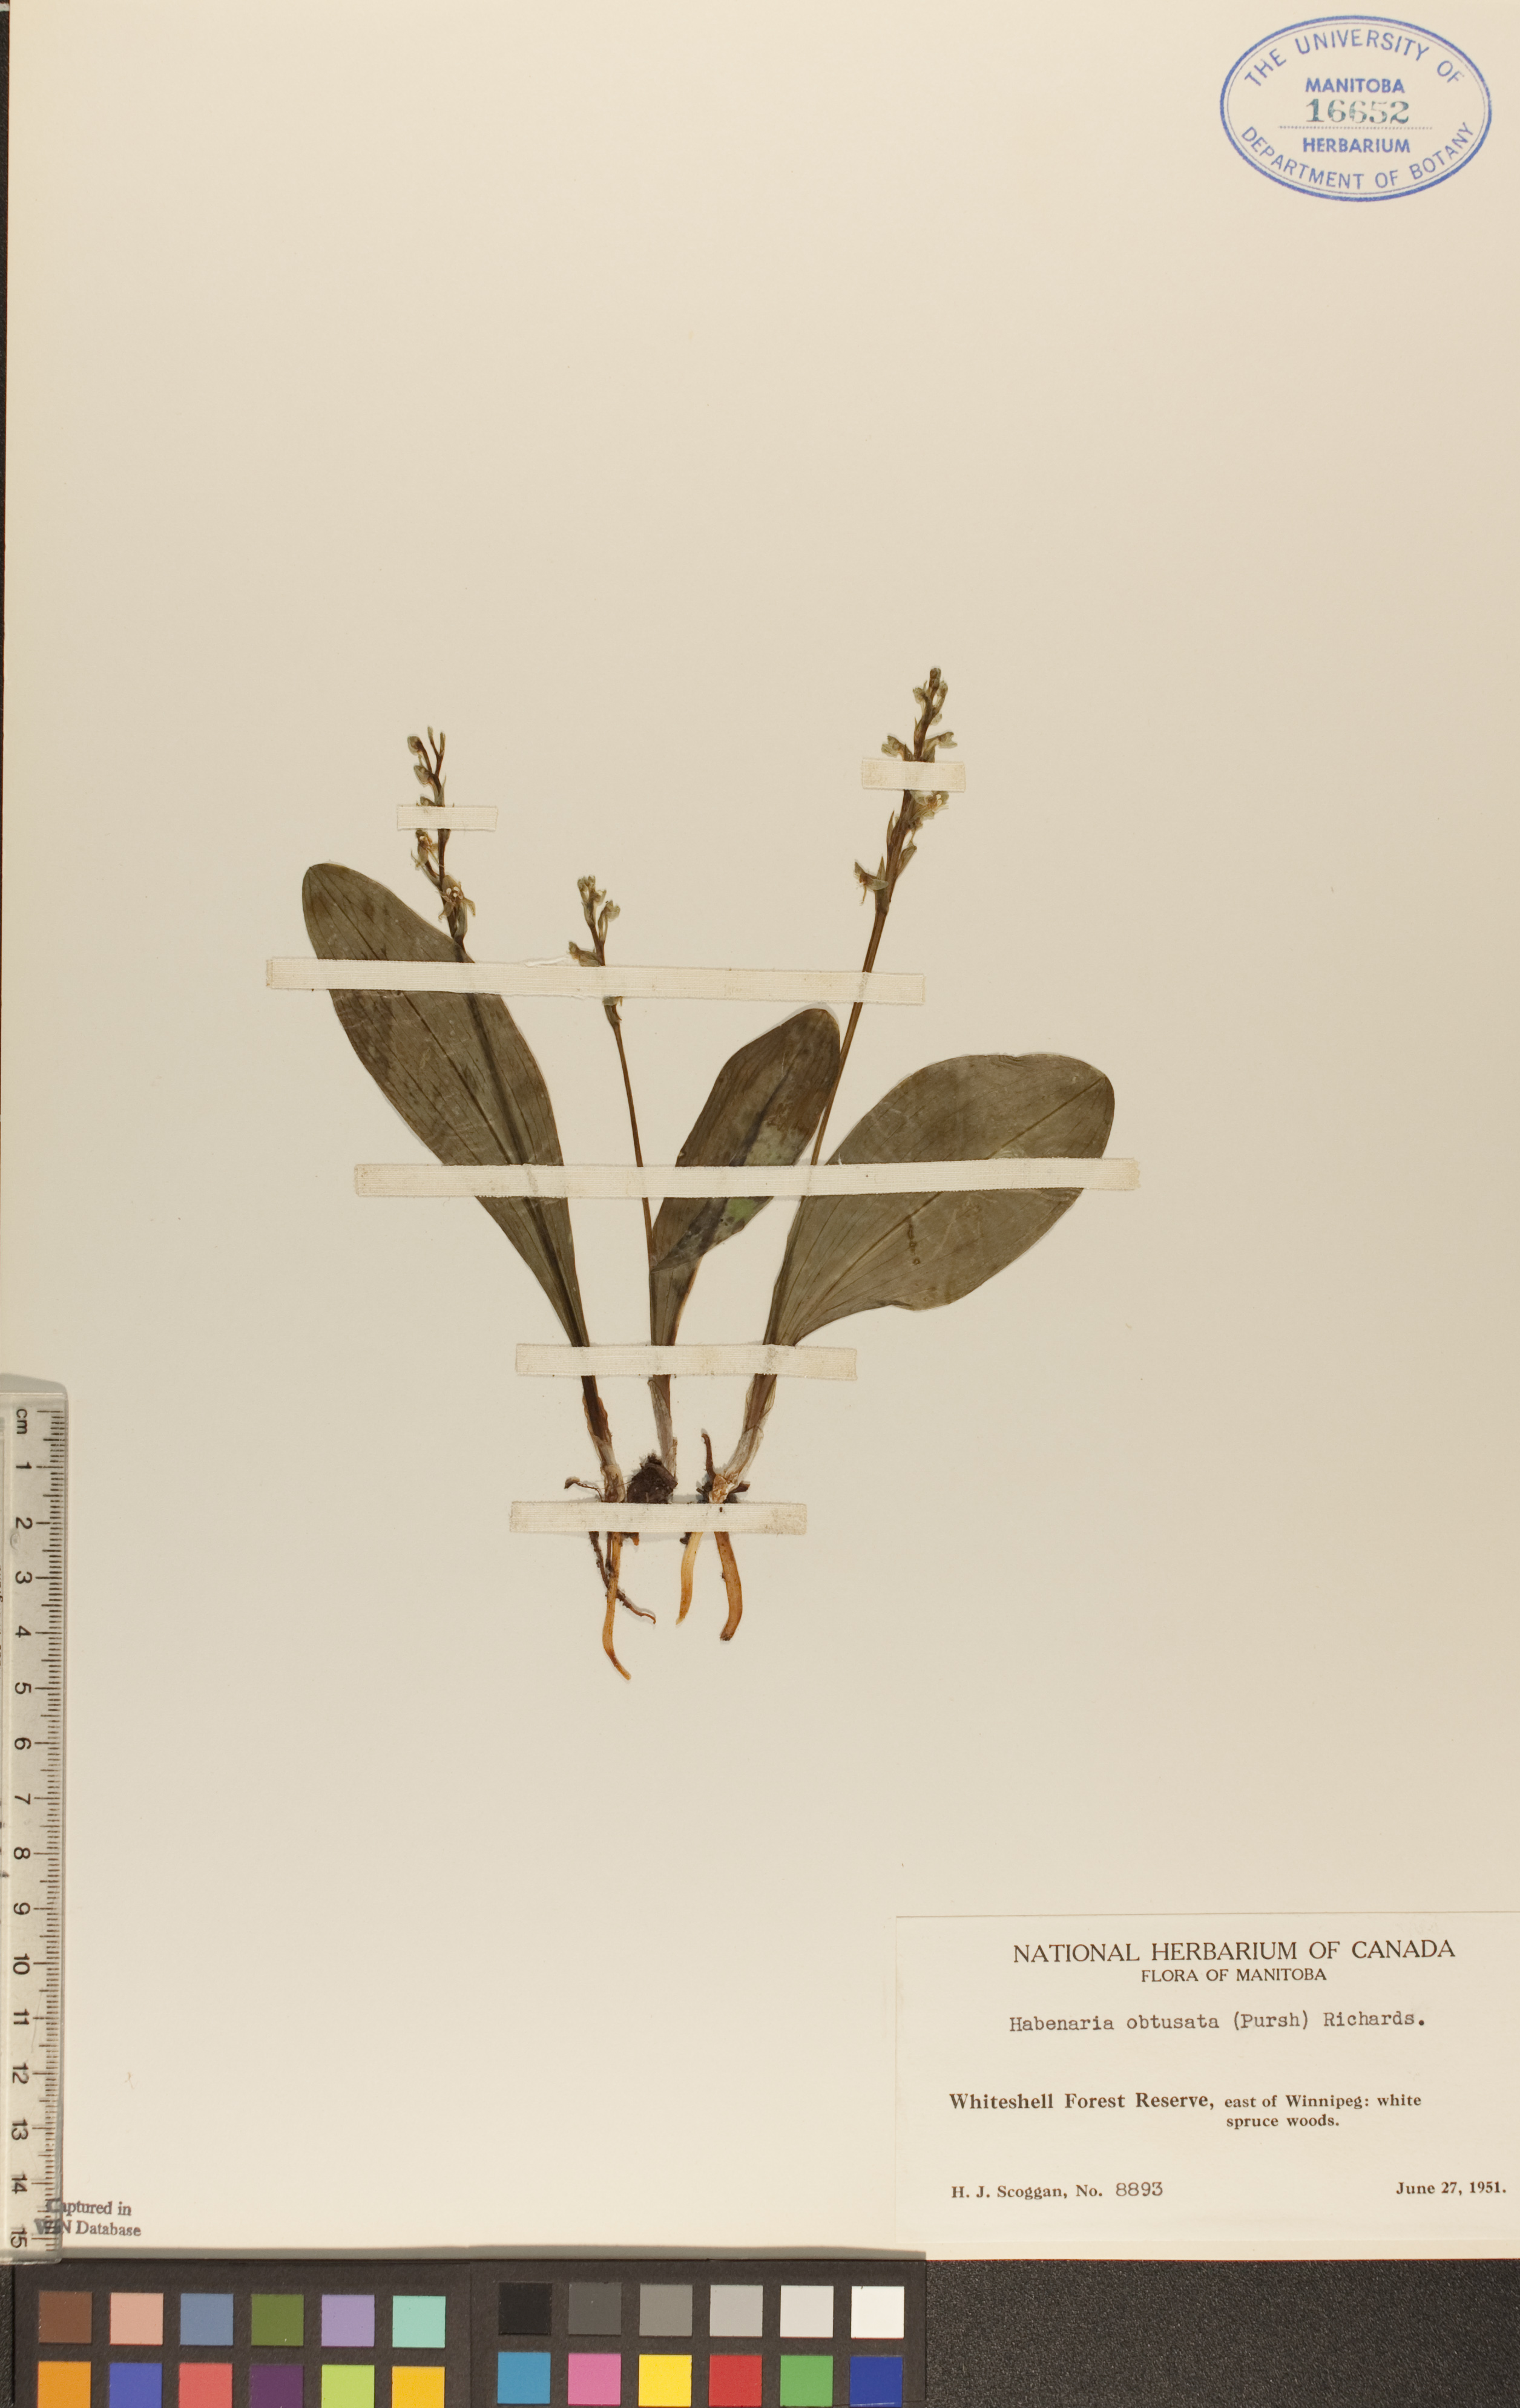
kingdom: Plantae
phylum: Tracheophyta
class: Liliopsida
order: Asparagales
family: Orchidaceae
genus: Platanthera
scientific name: Platanthera obtusata
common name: Blunt bog orchid
